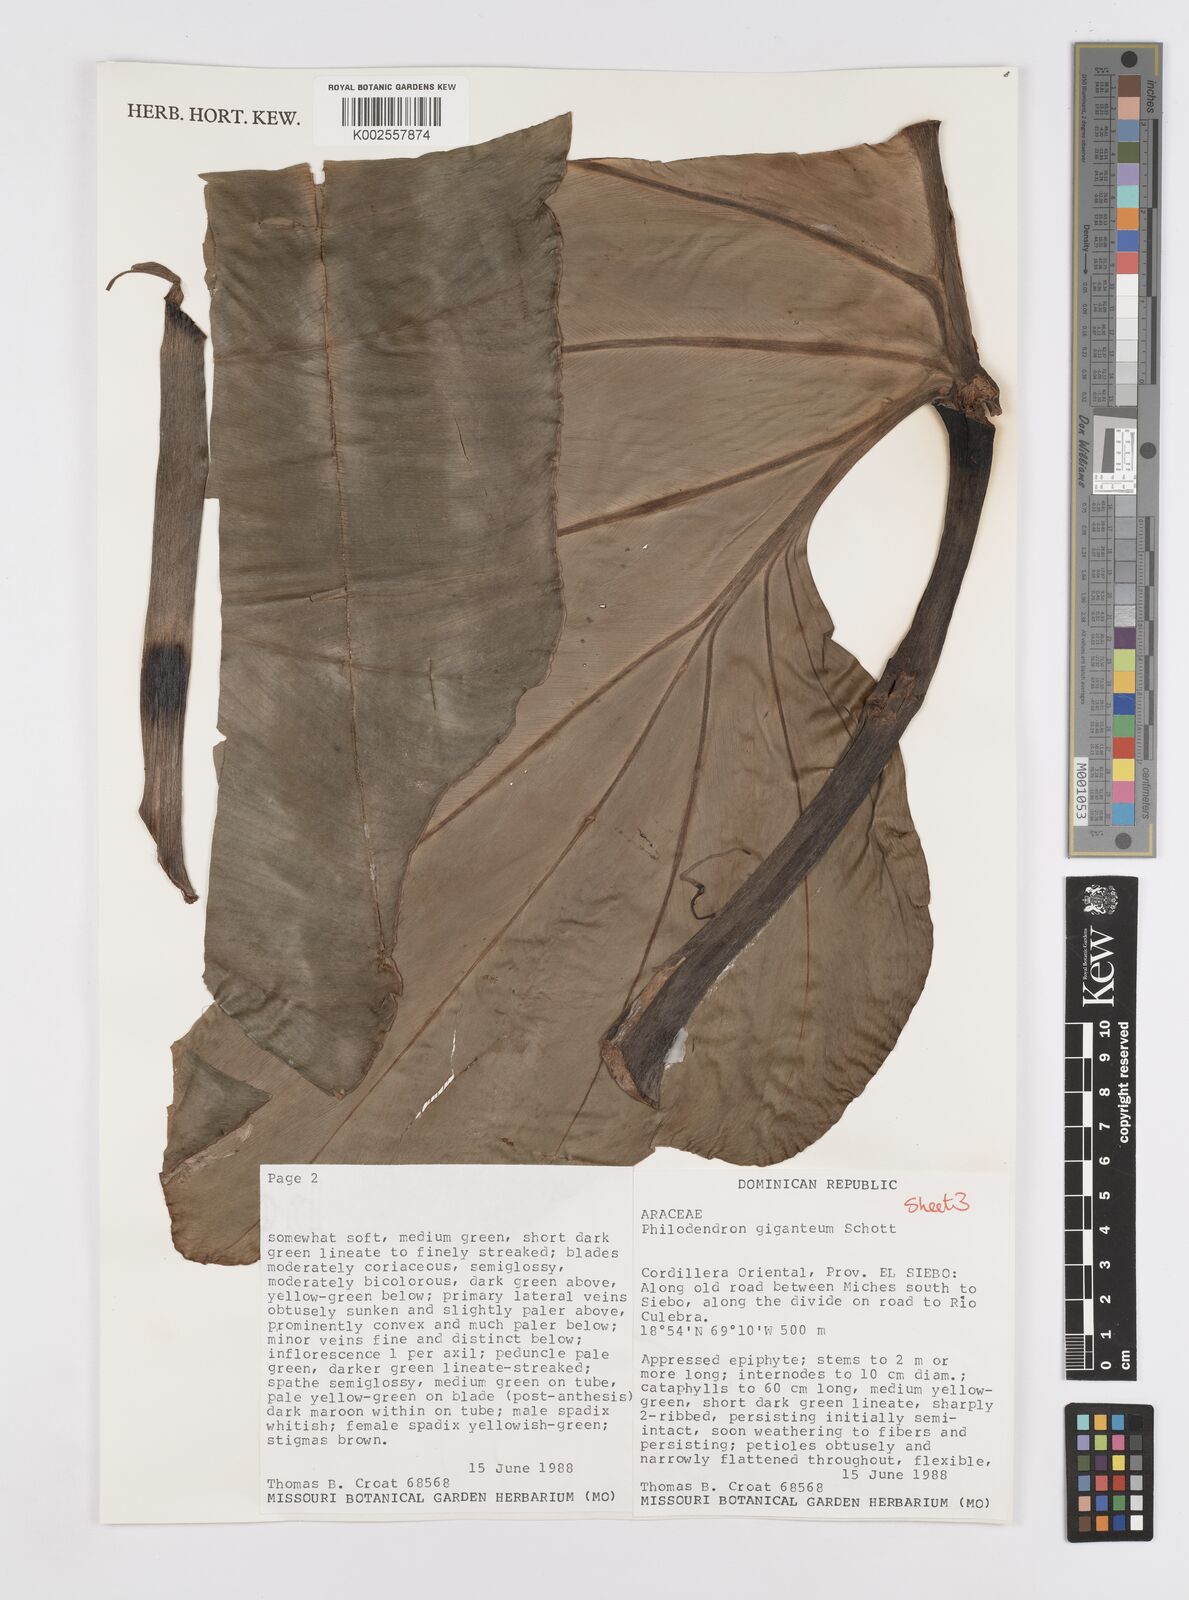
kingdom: Plantae
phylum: Tracheophyta
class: Liliopsida
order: Alismatales
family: Araceae
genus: Philodendron
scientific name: Philodendron
